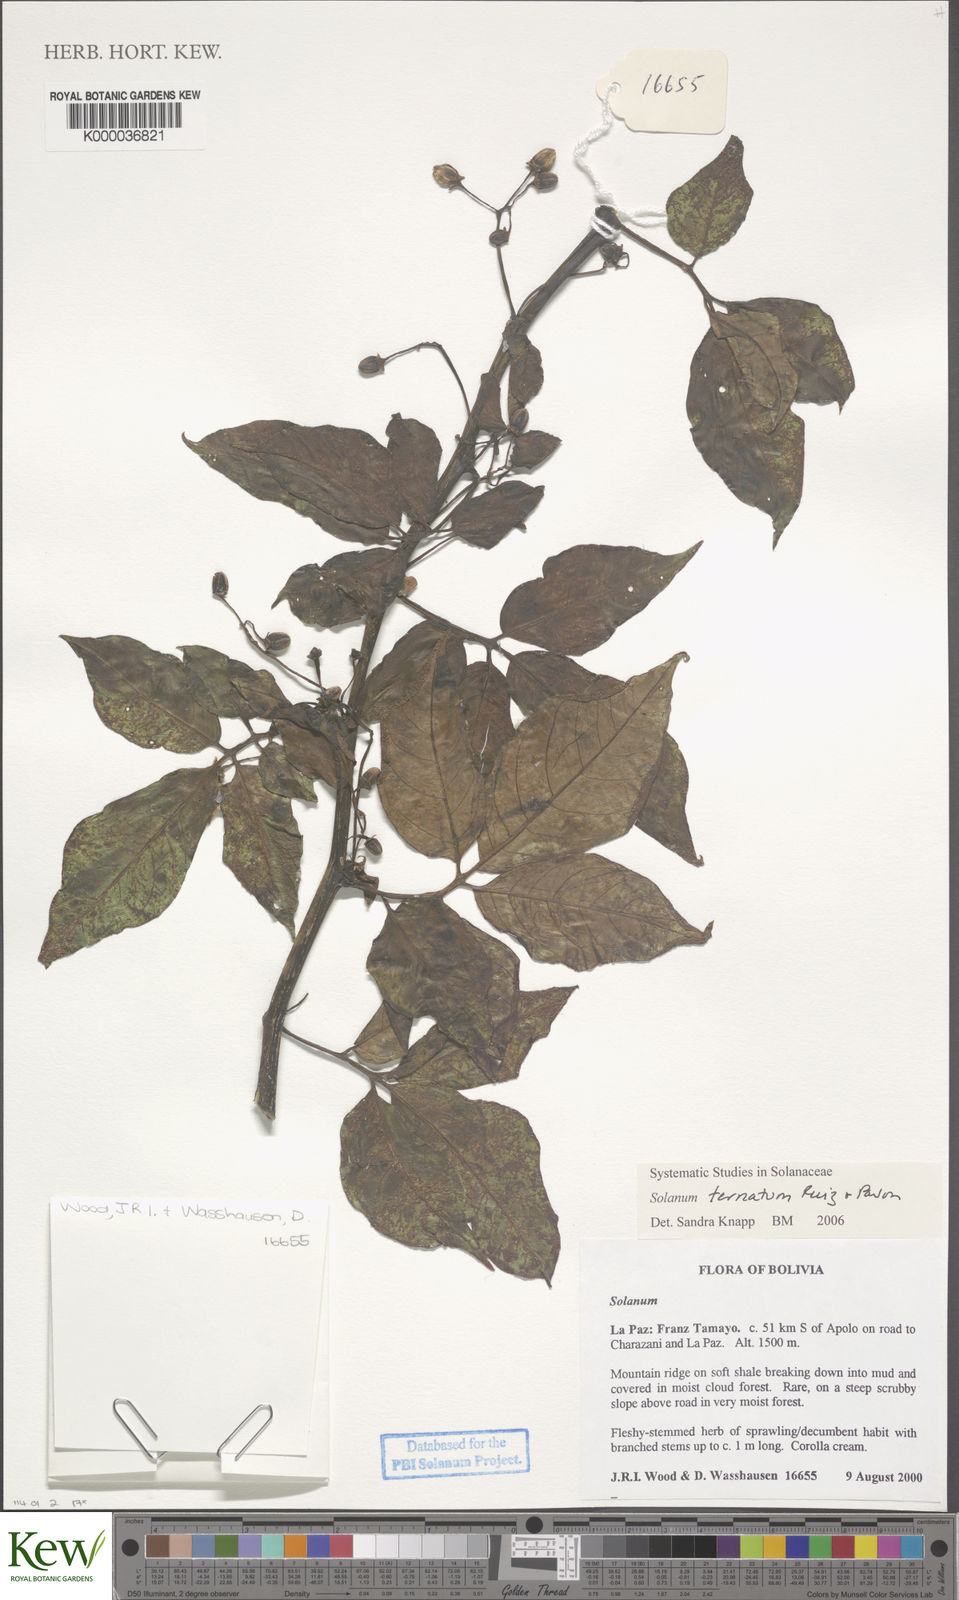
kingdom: Plantae
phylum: Tracheophyta
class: Magnoliopsida
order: Solanales
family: Solanaceae
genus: Solanum
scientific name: Solanum ternatum
